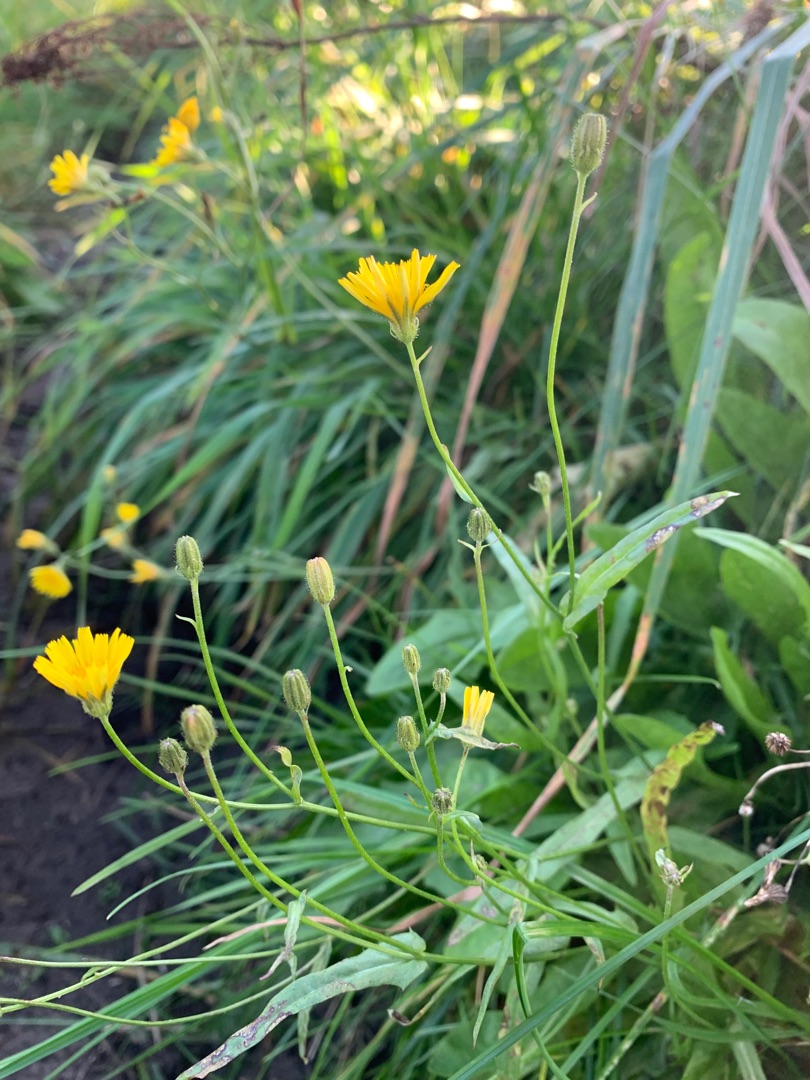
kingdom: Plantae
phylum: Tracheophyta
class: Magnoliopsida
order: Asterales
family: Asteraceae
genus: Crepis
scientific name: Crepis capillaris
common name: Grøn høgeskæg
